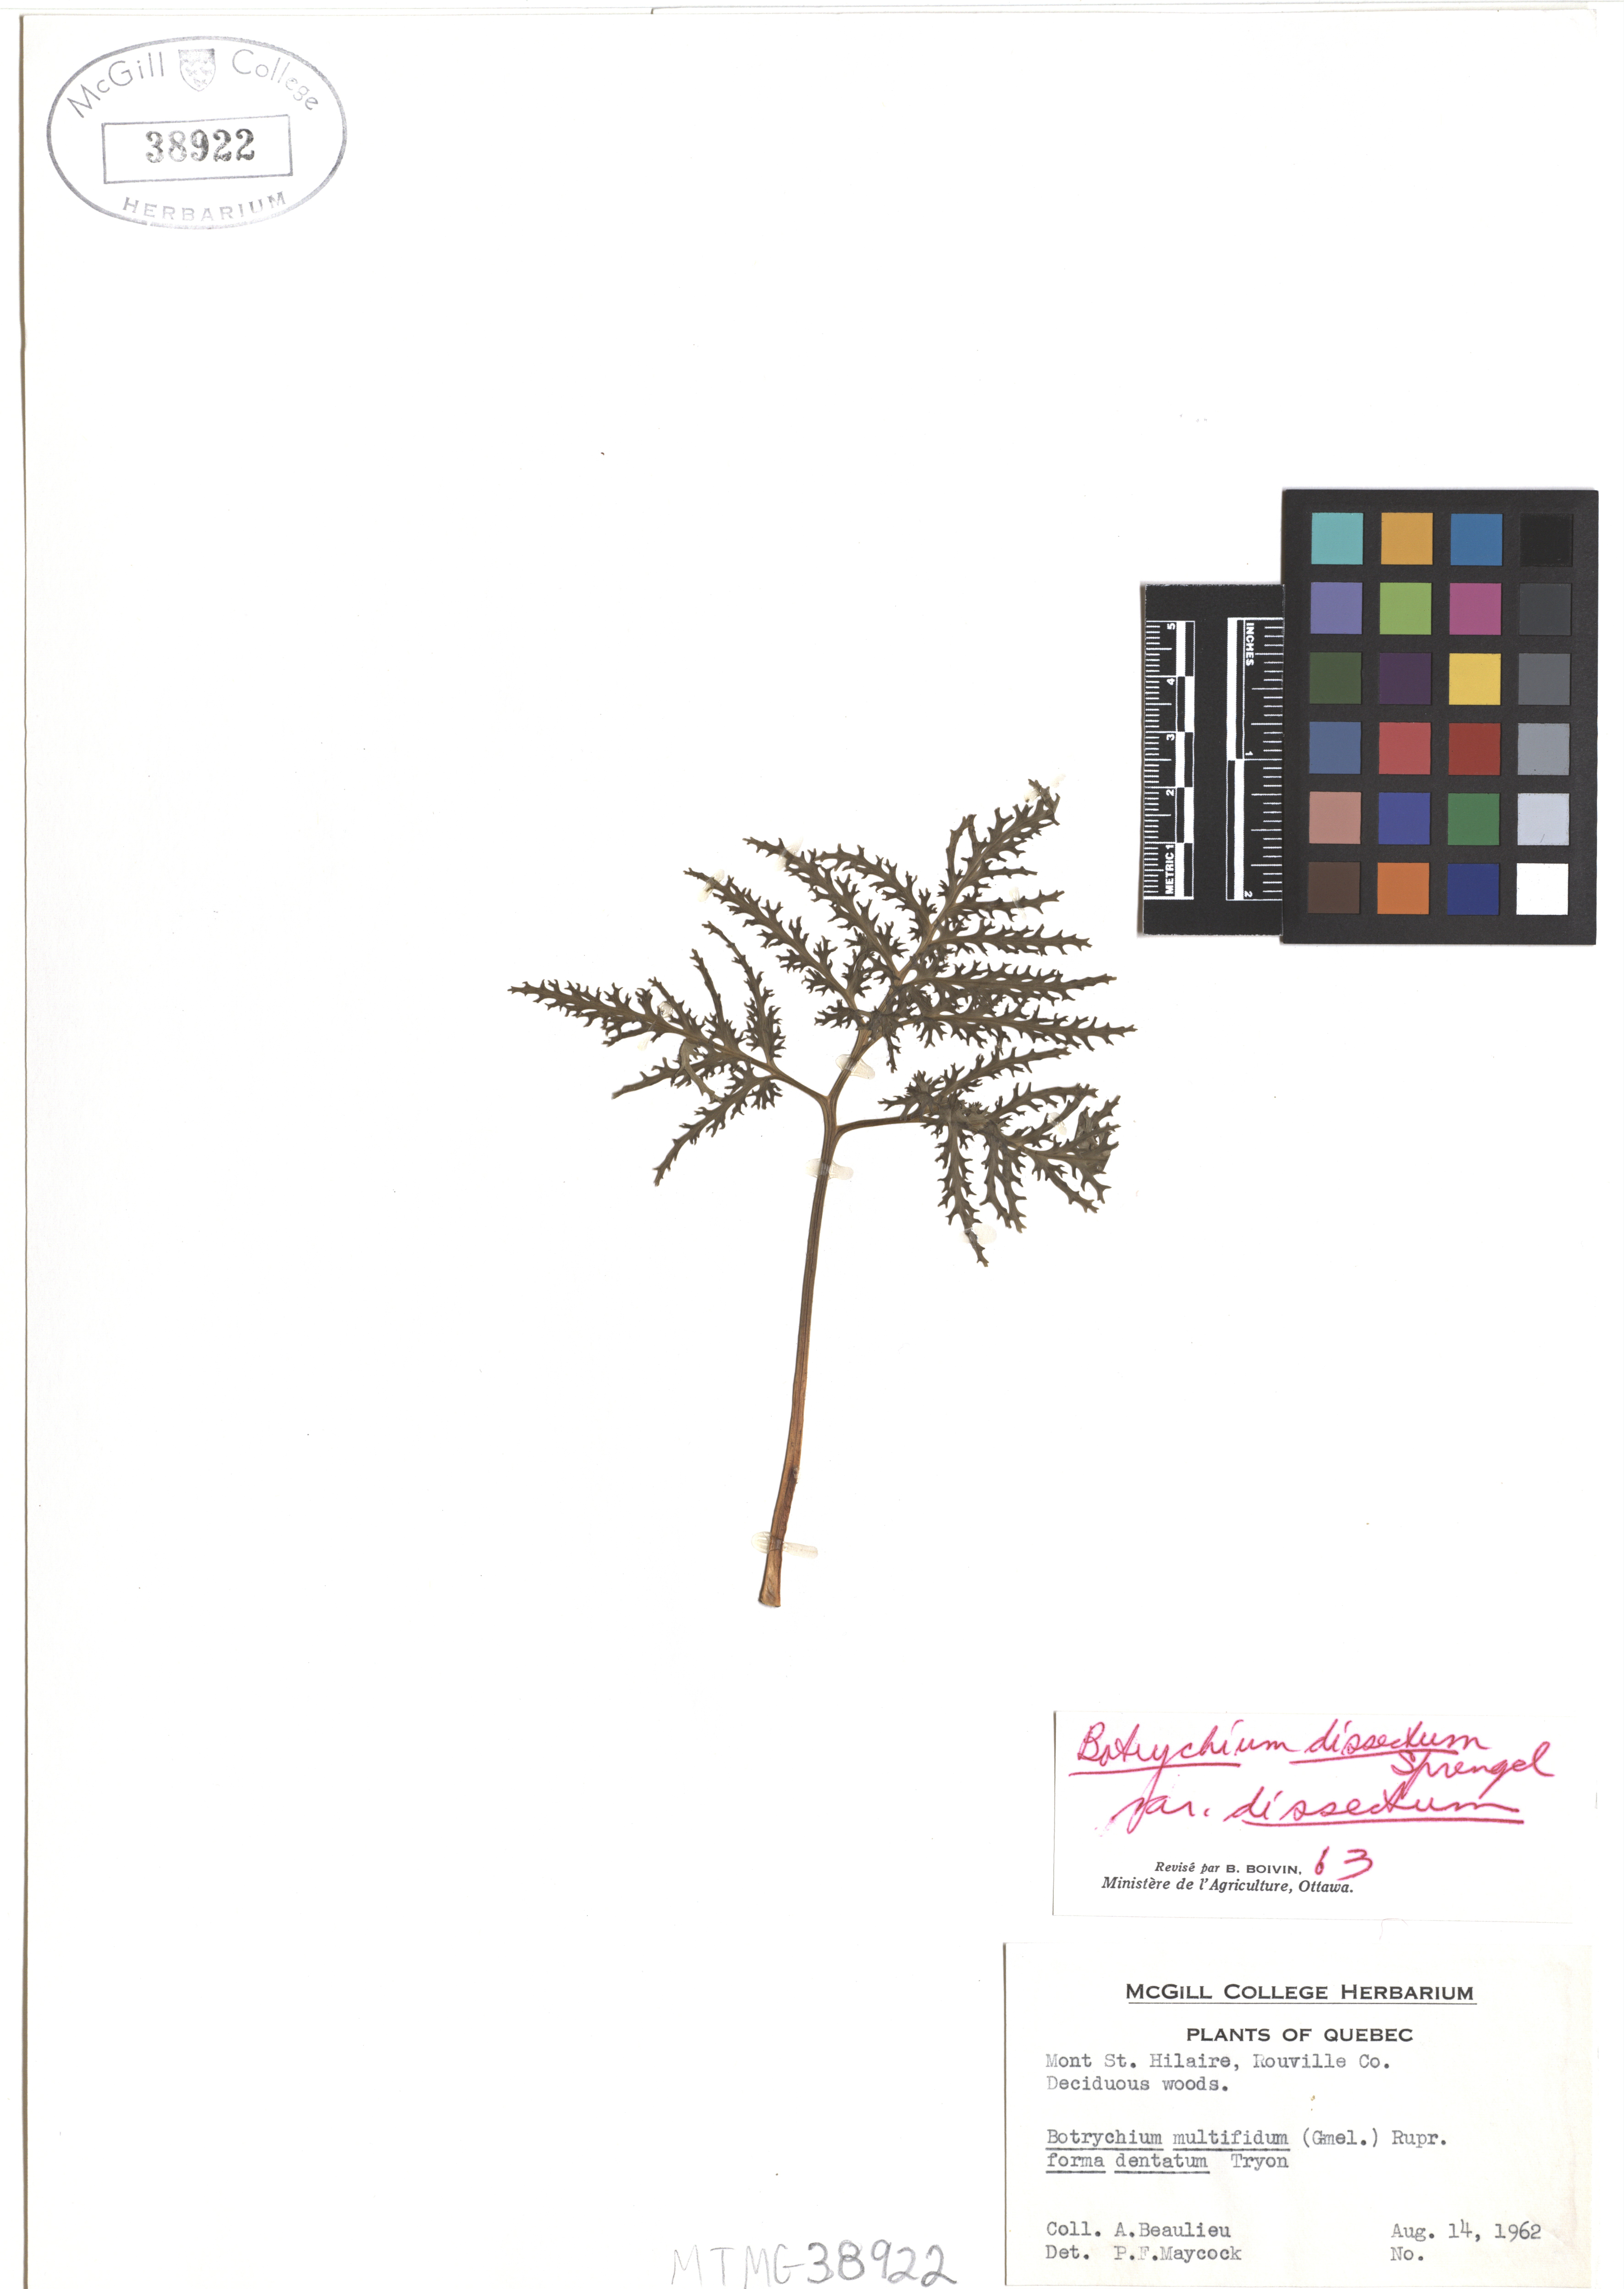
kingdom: Plantae
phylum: Tracheophyta
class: Polypodiopsida
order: Ophioglossales
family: Ophioglossaceae
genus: Sceptridium
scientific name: Sceptridium dissectum
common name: Cut-leaved grapefern
